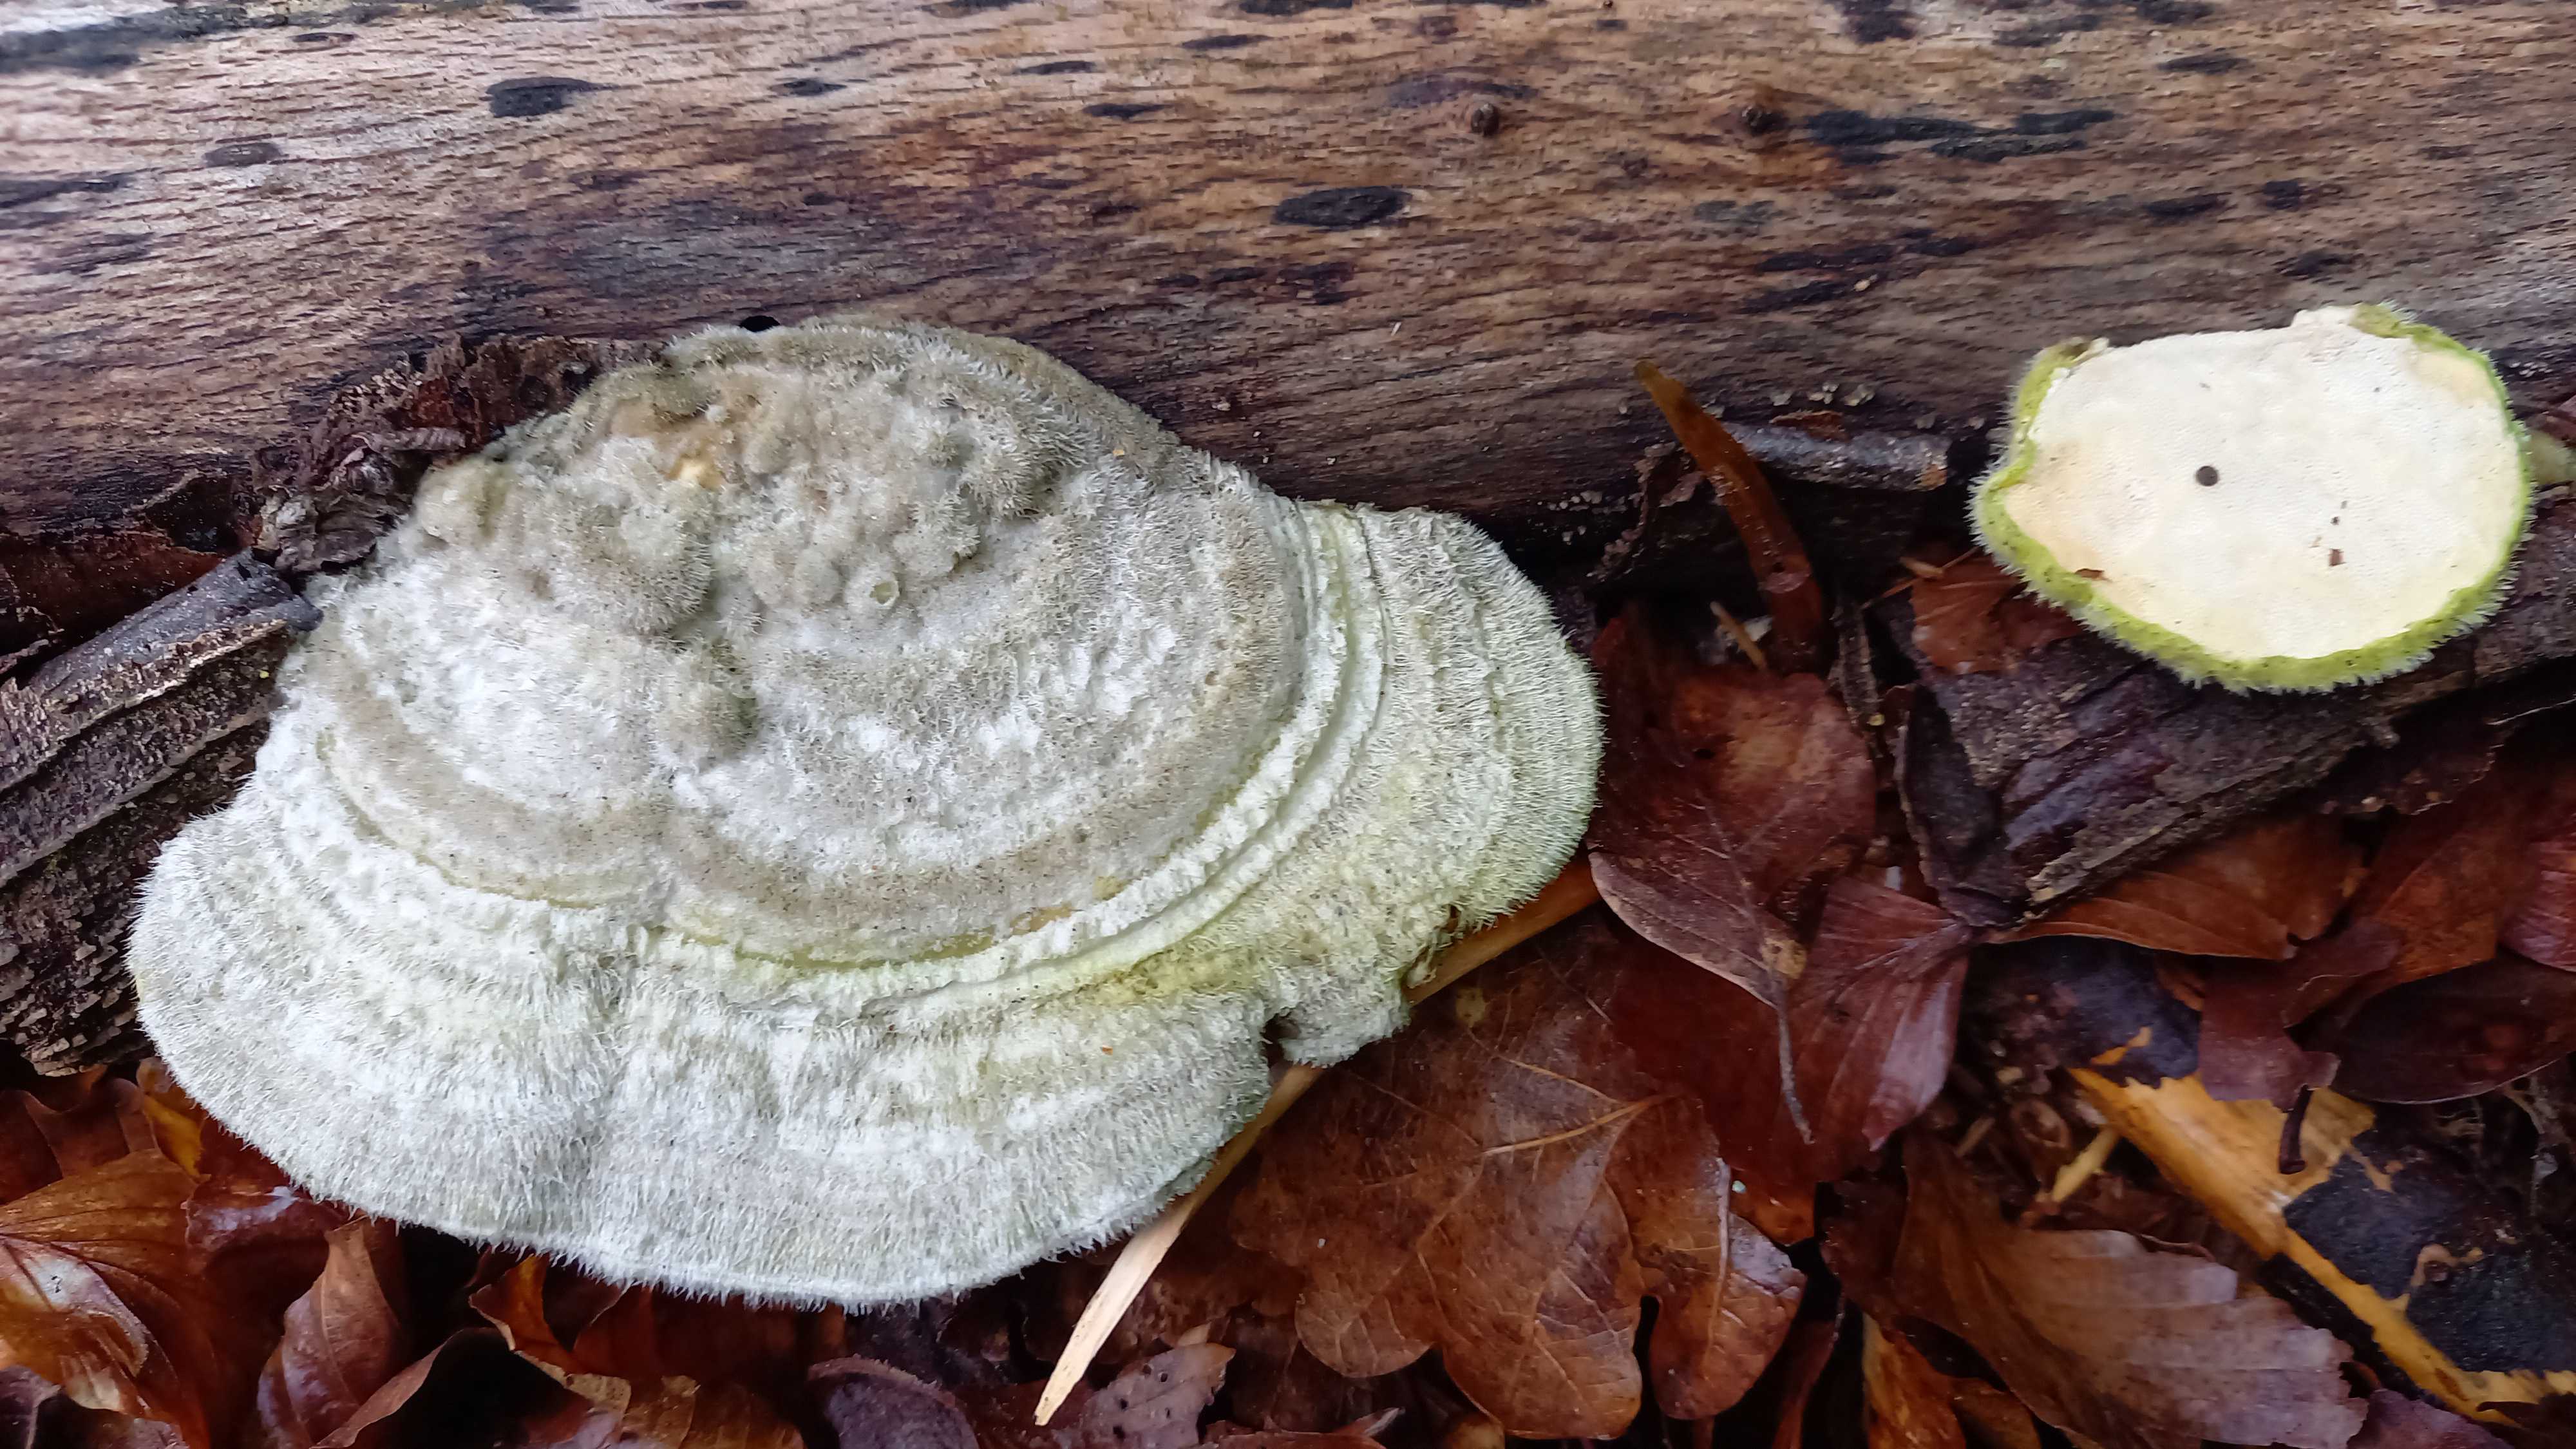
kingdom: Fungi
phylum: Basidiomycota
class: Agaricomycetes
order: Polyporales
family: Polyporaceae
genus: Trametes
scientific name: Trametes hirsuta
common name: håret læderporesvamp
